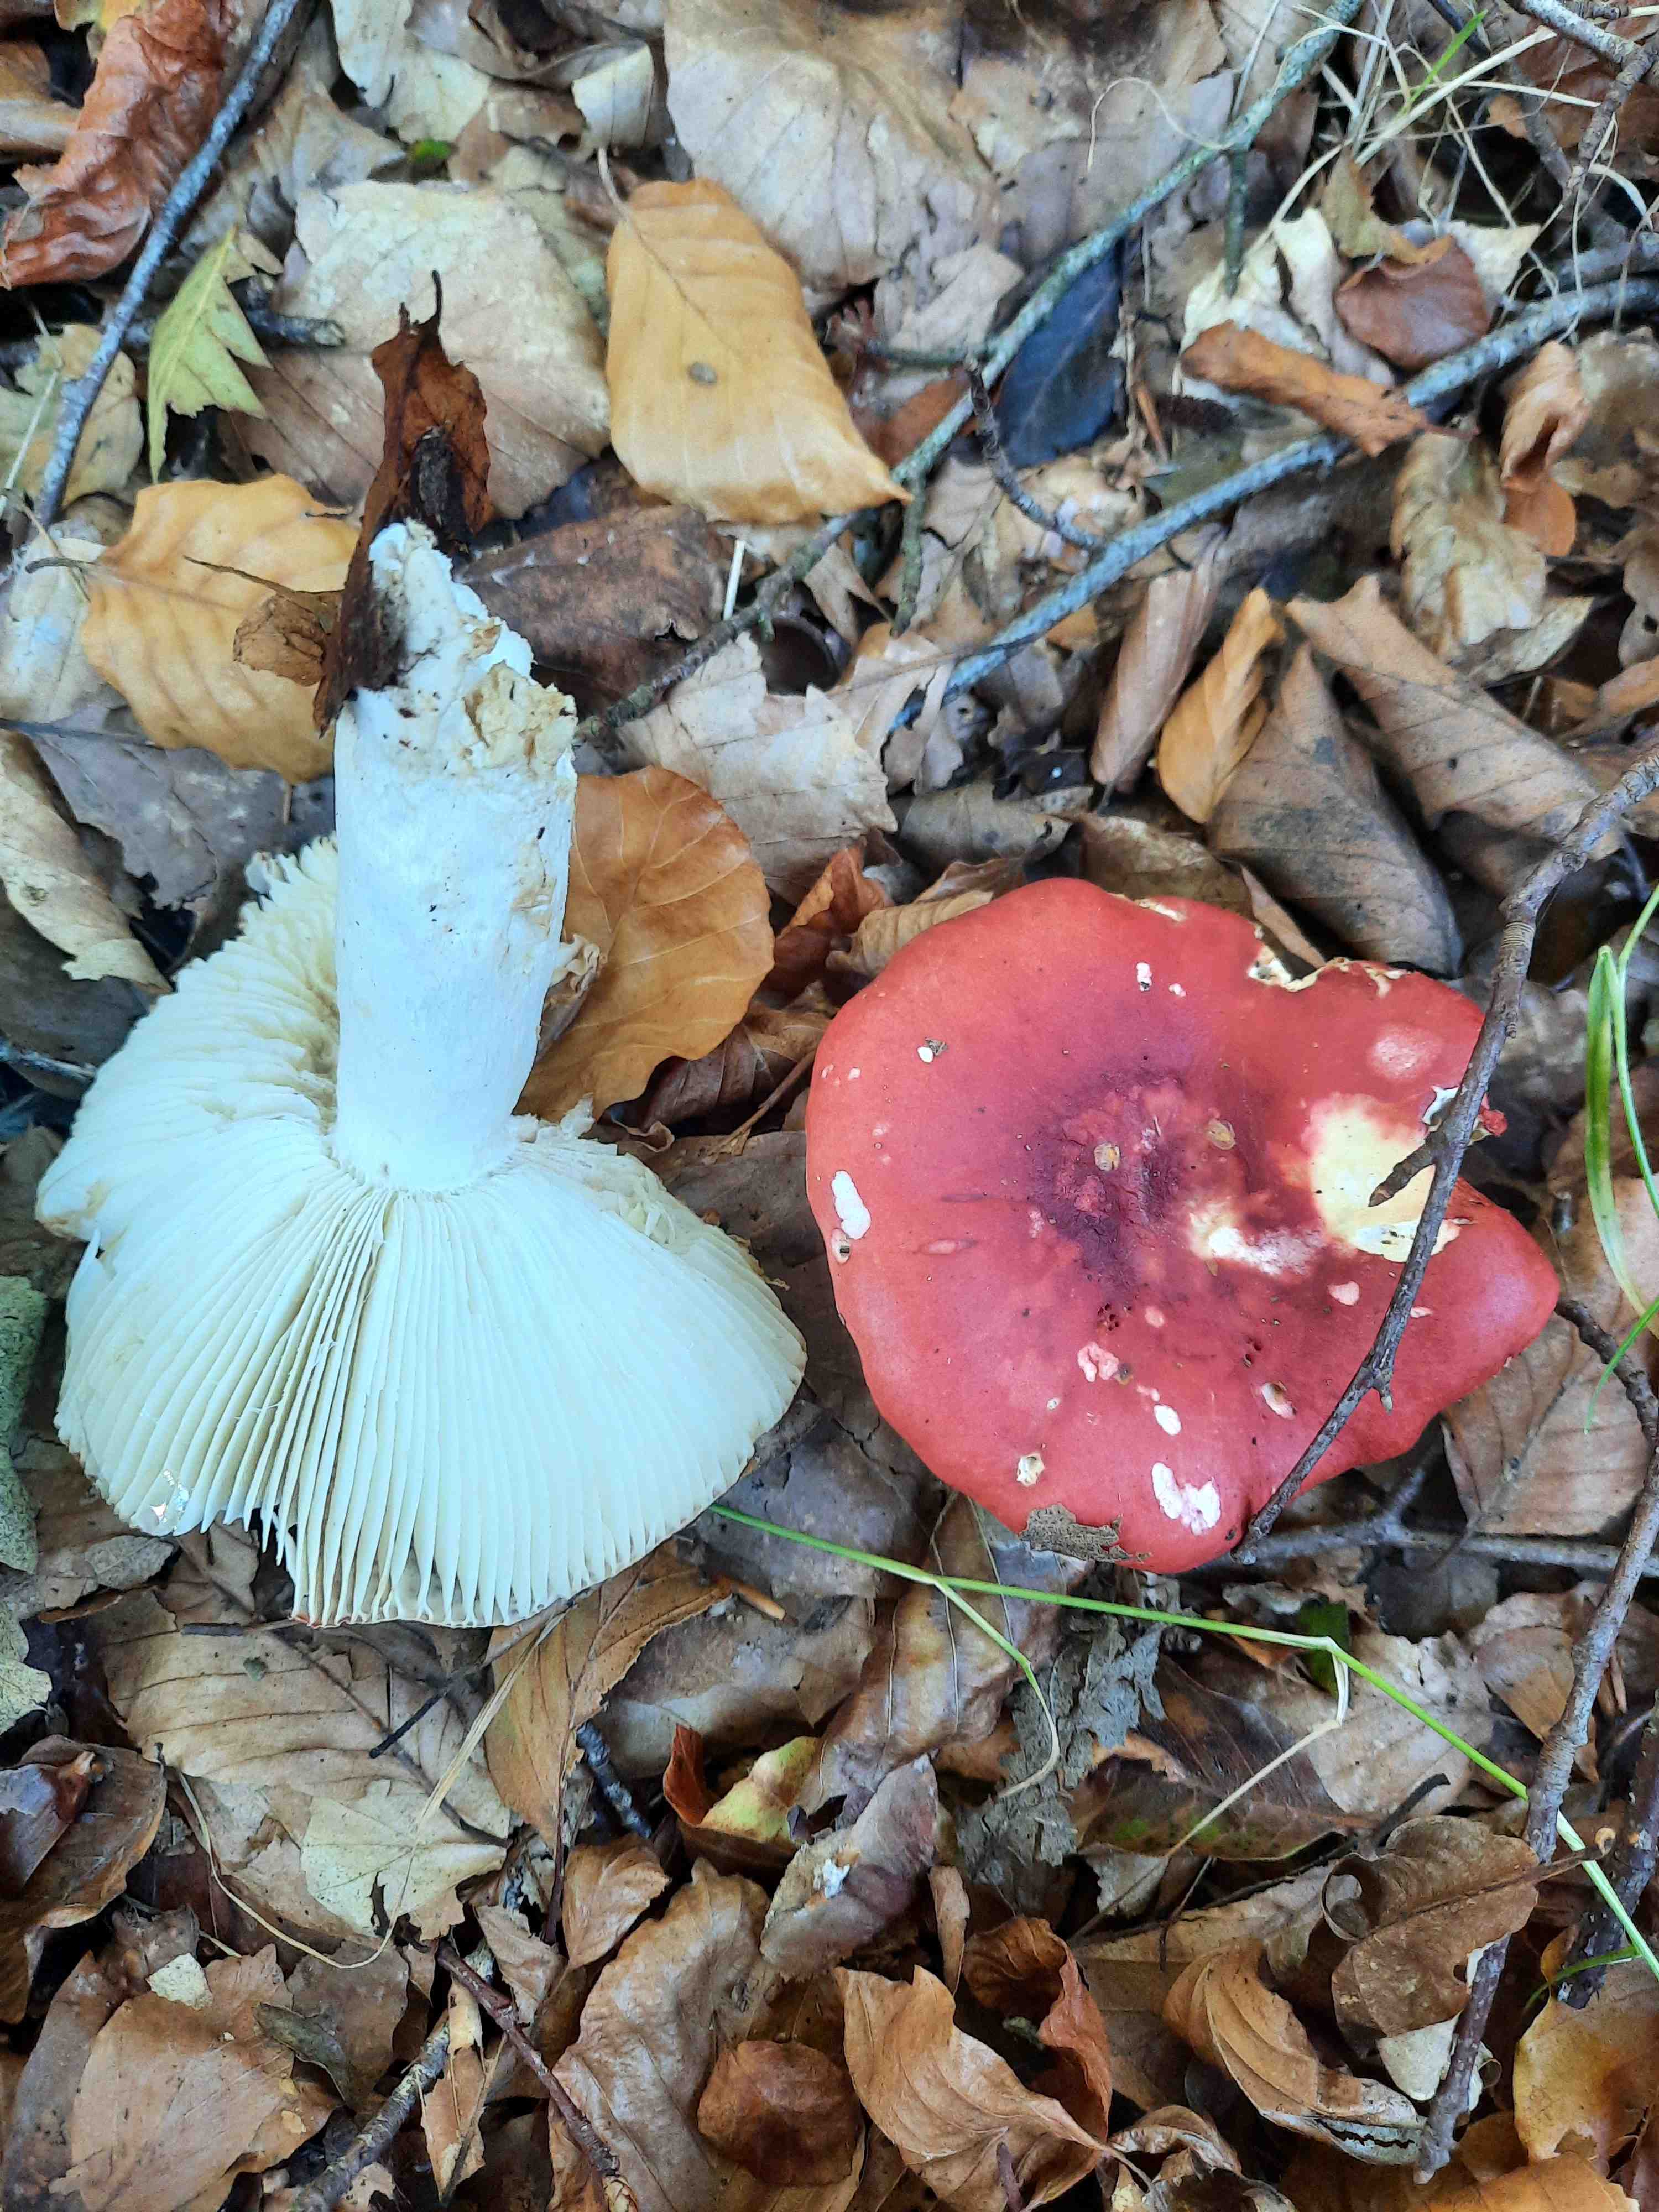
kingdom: Fungi
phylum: Basidiomycota
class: Agaricomycetes
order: Russulales
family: Russulaceae
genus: Russula
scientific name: Russula
